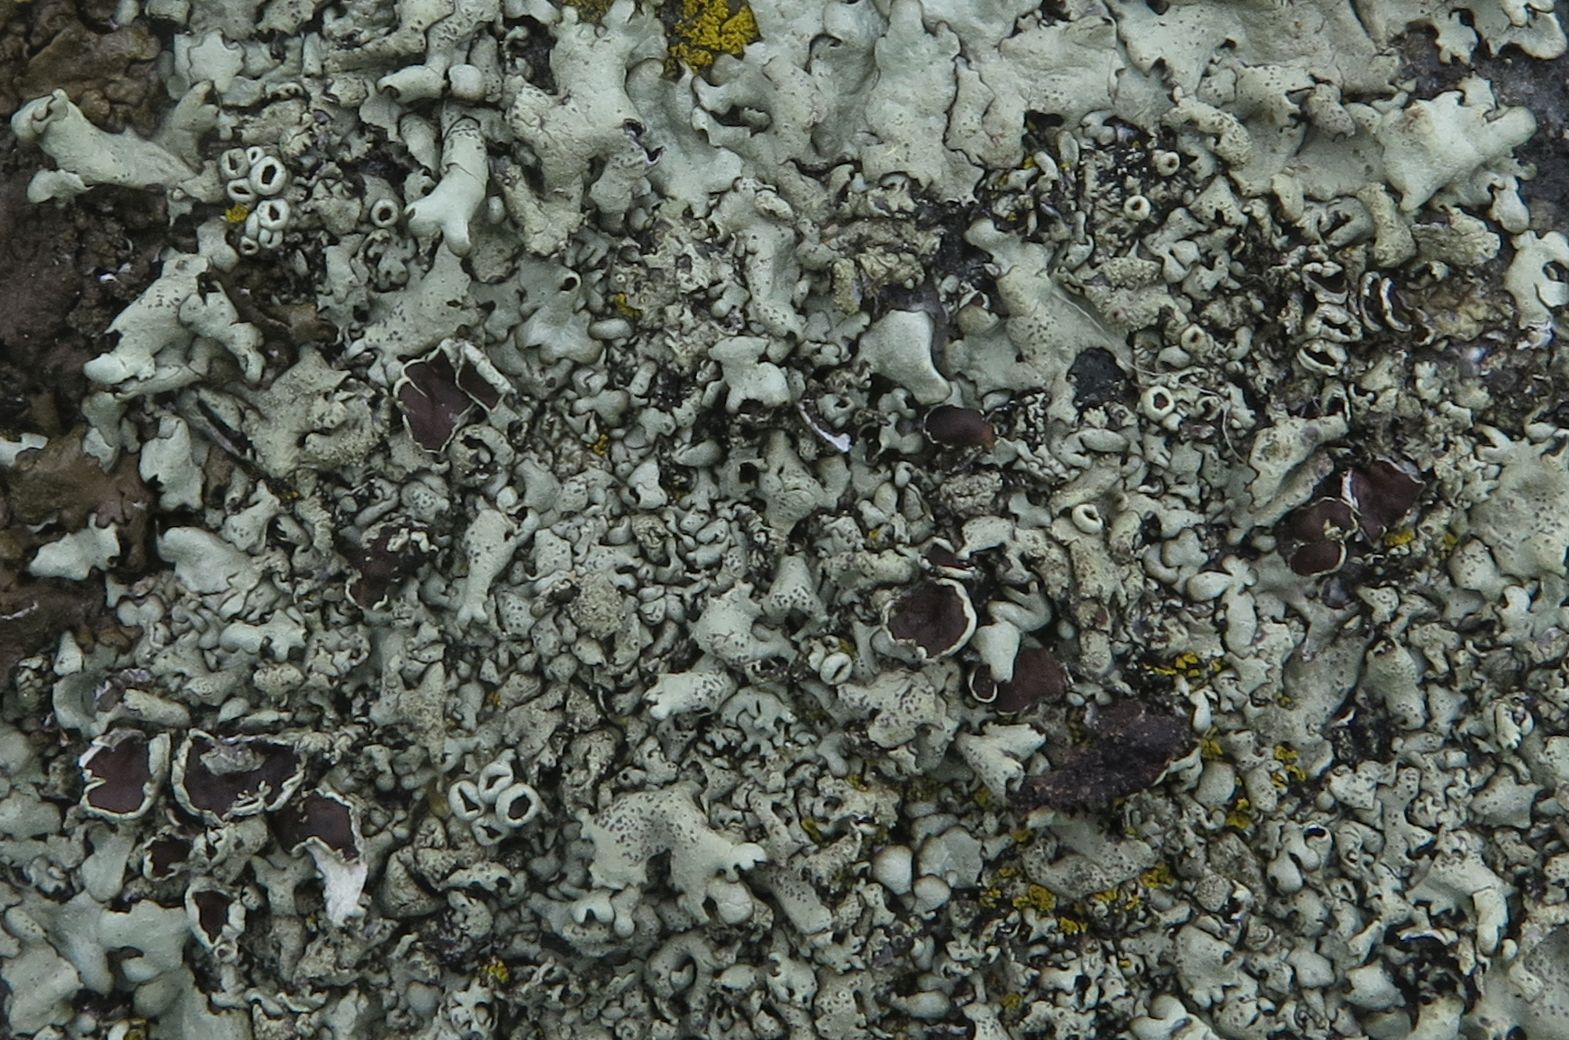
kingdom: Fungi
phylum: Ascomycota
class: Lecanoromycetes
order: Lecanorales
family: Parmeliaceae
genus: Xanthoparmelia
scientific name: Xanthoparmelia stenophylla
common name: Shingled rock shield
